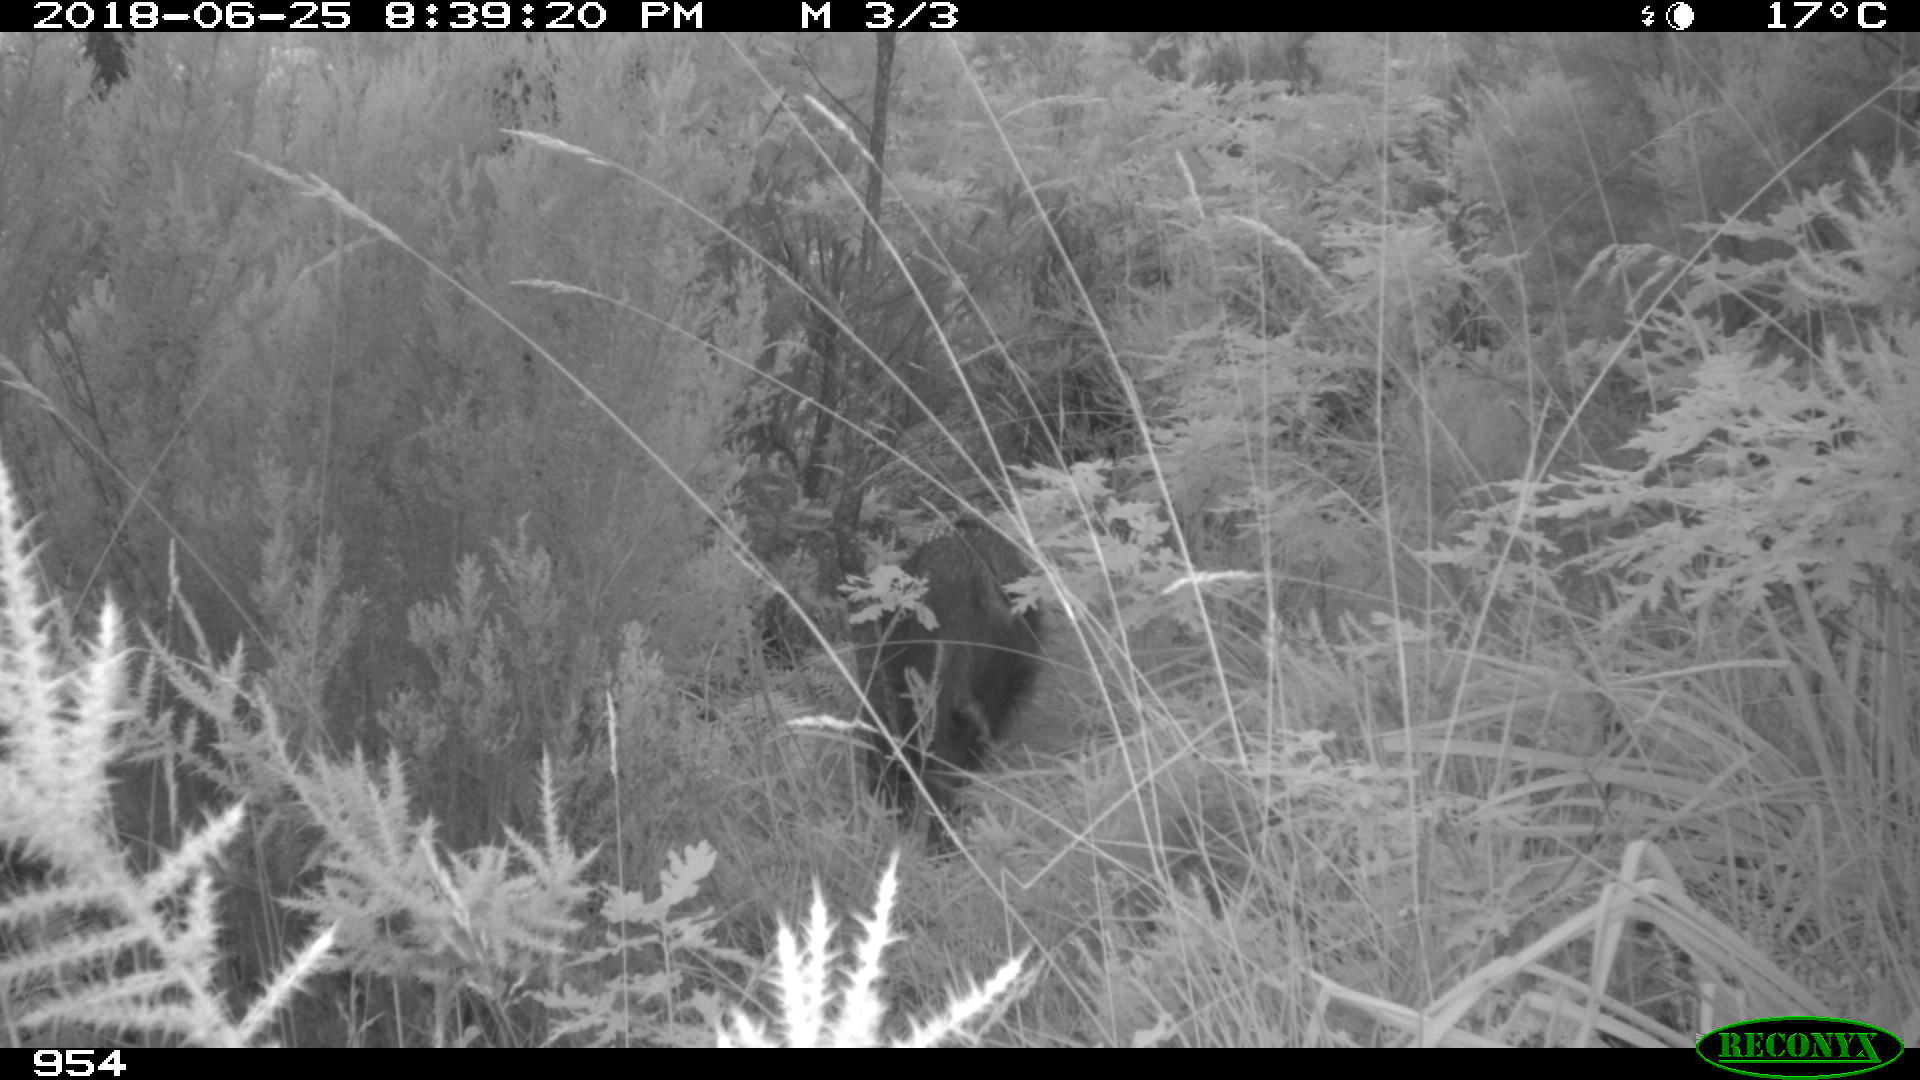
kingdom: Animalia
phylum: Chordata
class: Mammalia
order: Artiodactyla
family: Suidae
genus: Sus
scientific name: Sus scrofa
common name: Wild boar
